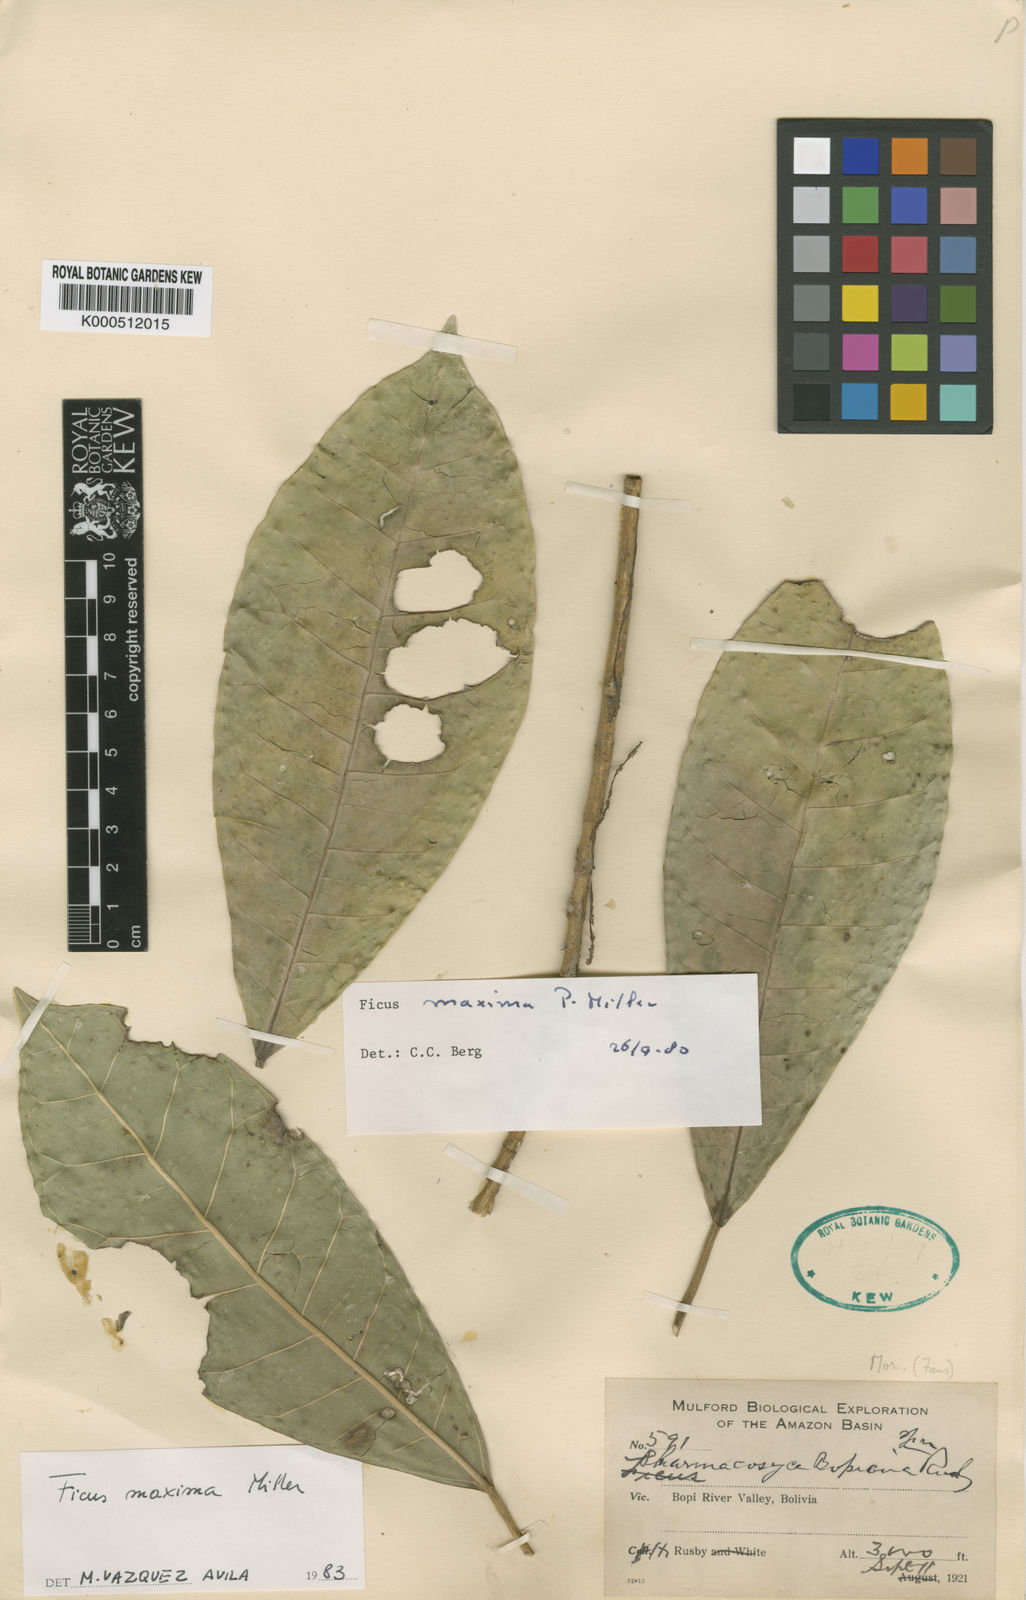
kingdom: Plantae
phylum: Tracheophyta
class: Magnoliopsida
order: Rosales
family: Moraceae
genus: Ficus
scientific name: Ficus maxima
